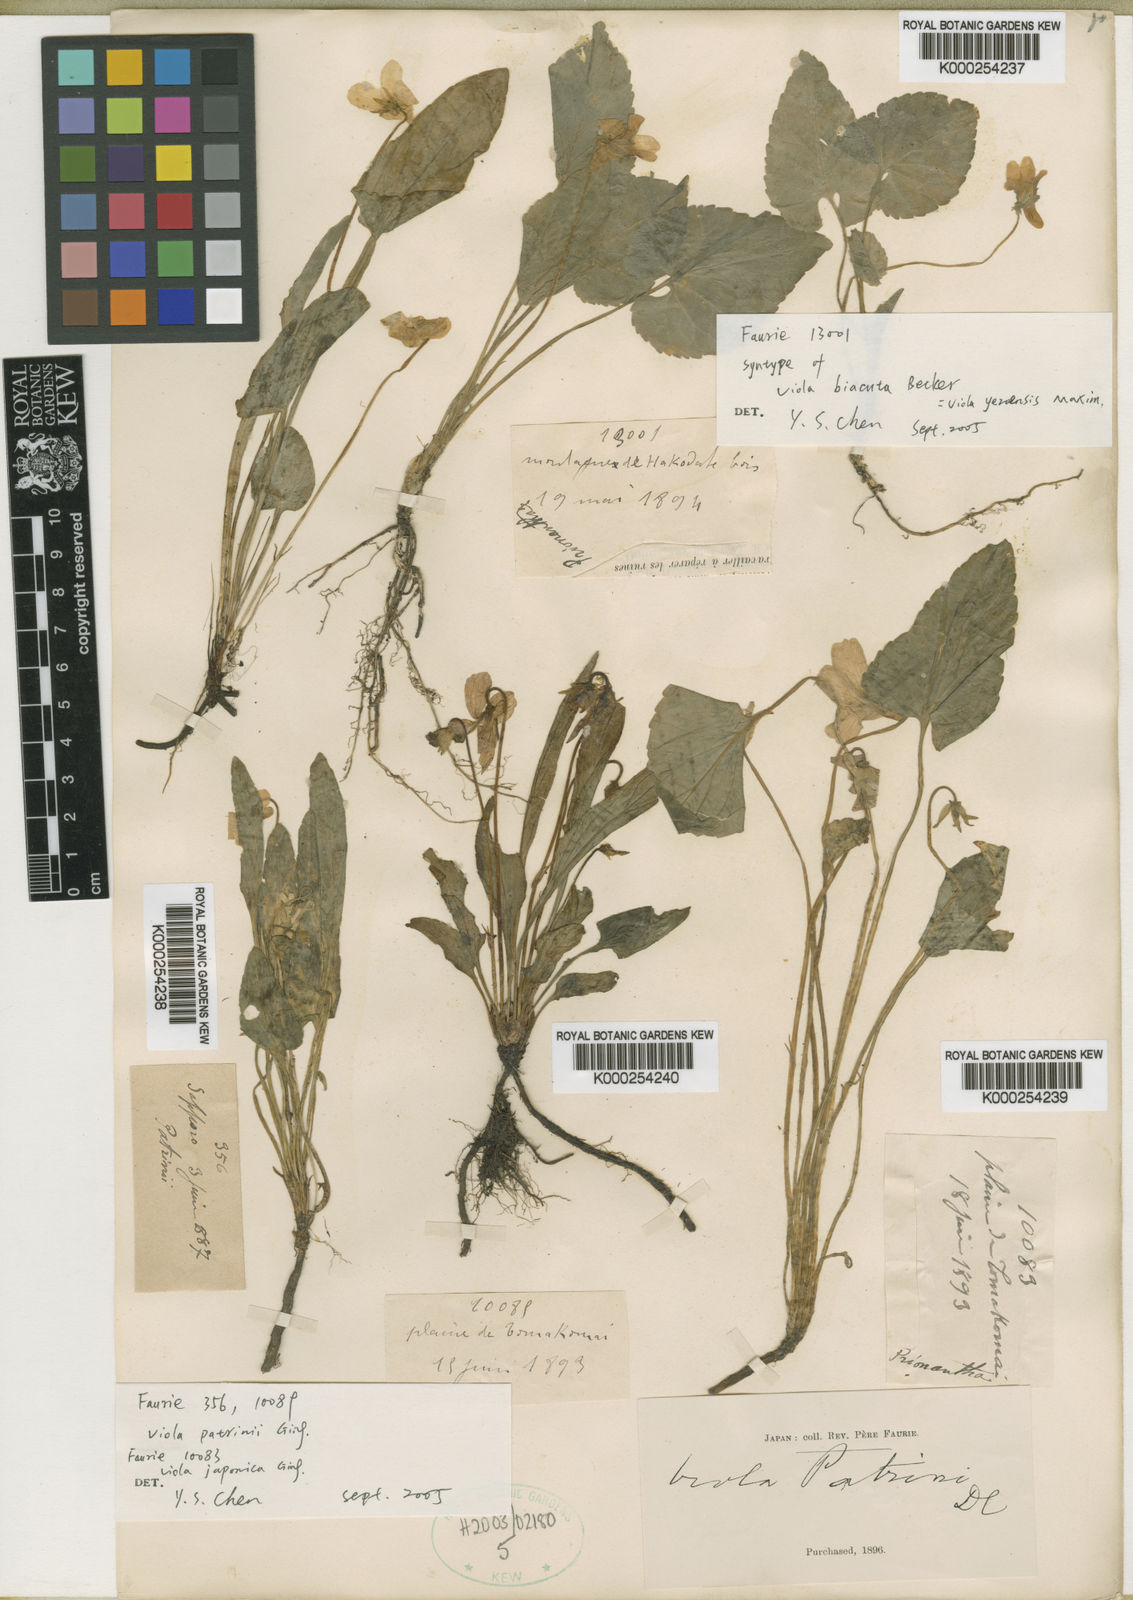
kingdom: Plantae
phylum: Tracheophyta
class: Magnoliopsida
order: Malpighiales
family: Violaceae
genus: Viola
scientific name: Viola yezoensis
